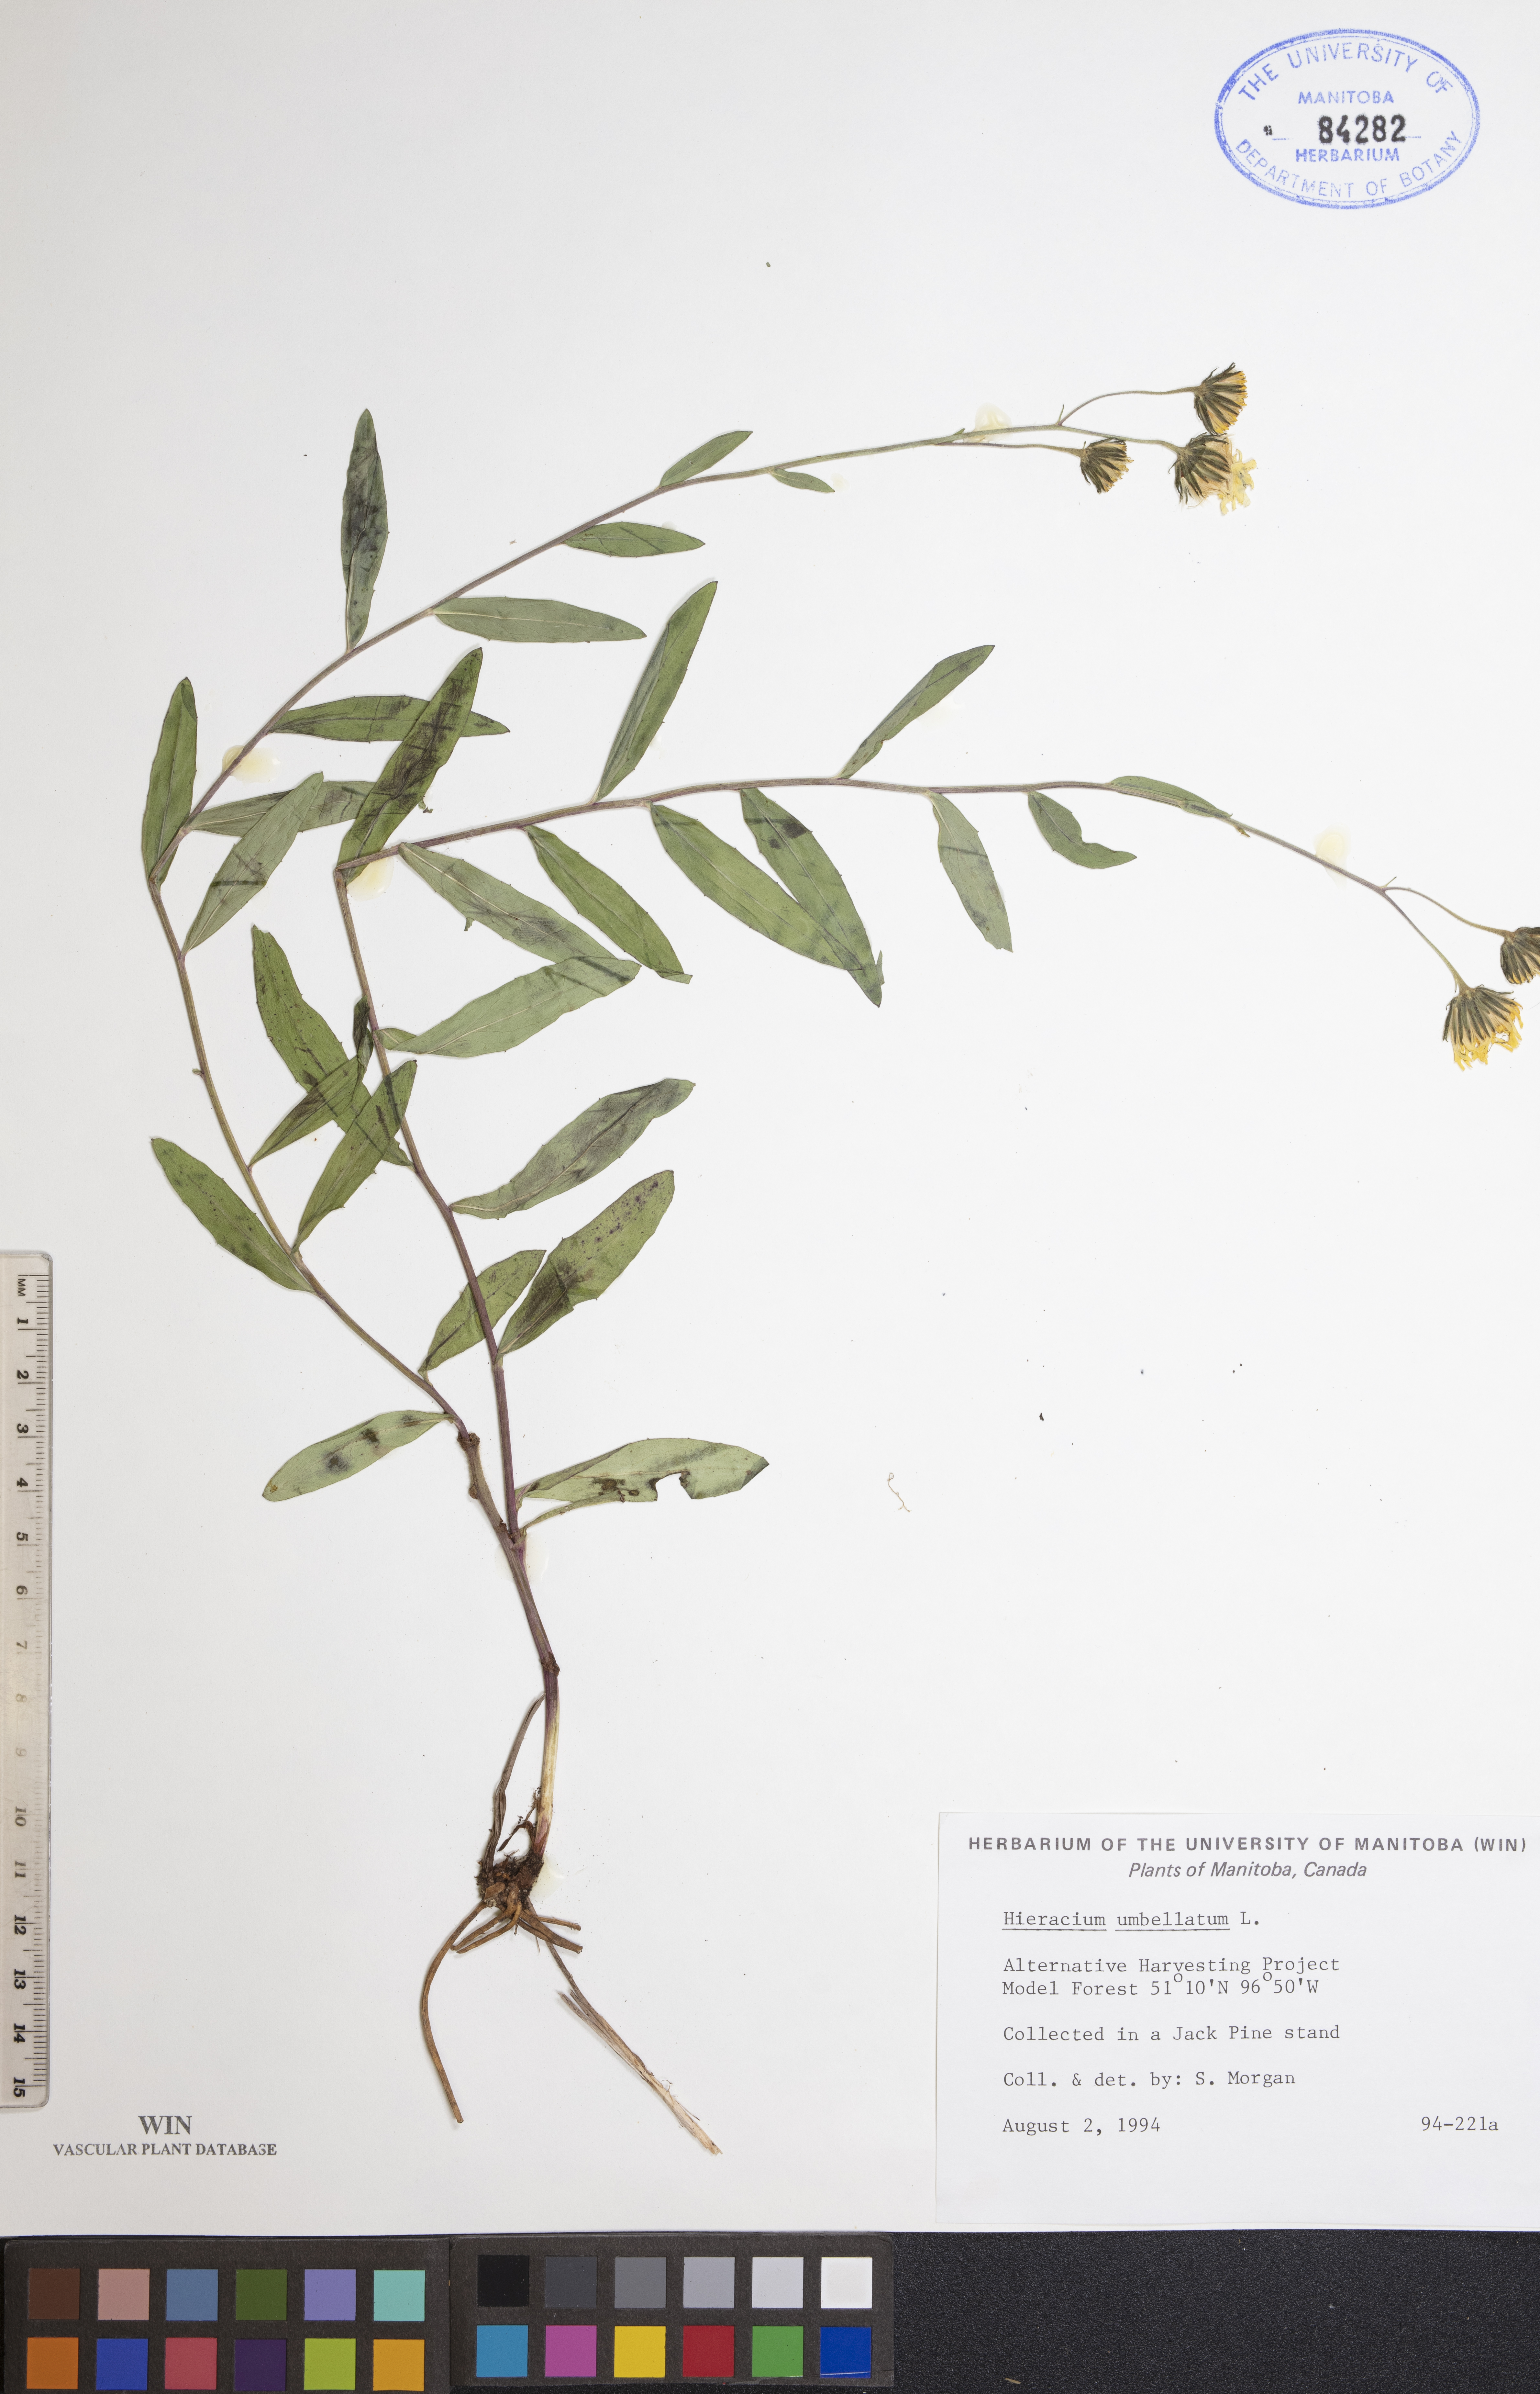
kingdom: Plantae
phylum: Tracheophyta
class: Magnoliopsida
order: Asterales
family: Asteraceae
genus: Hieracium
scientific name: Hieracium umbellatum
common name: Northern hawkweed
